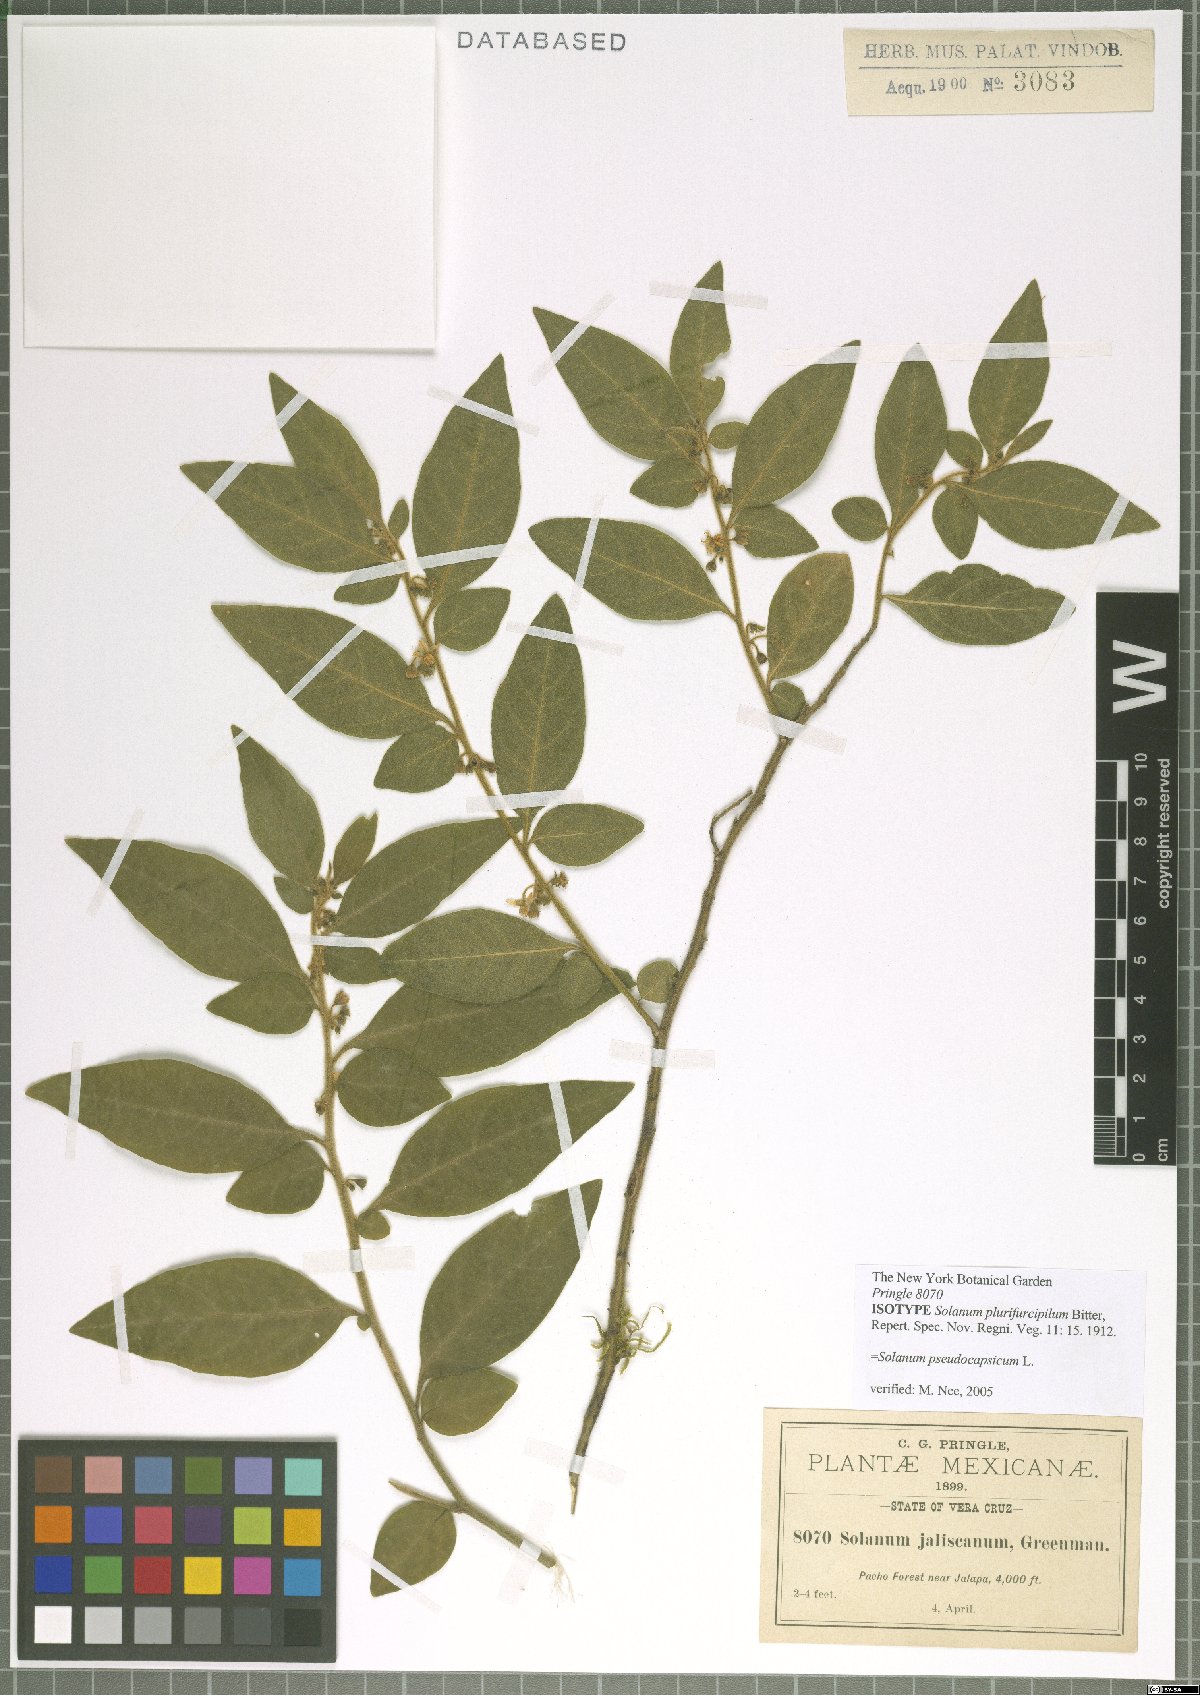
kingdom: Plantae
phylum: Tracheophyta
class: Magnoliopsida
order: Solanales
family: Solanaceae
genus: Solanum
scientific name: Solanum pseudocapsicum
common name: Jerusalem cherry
